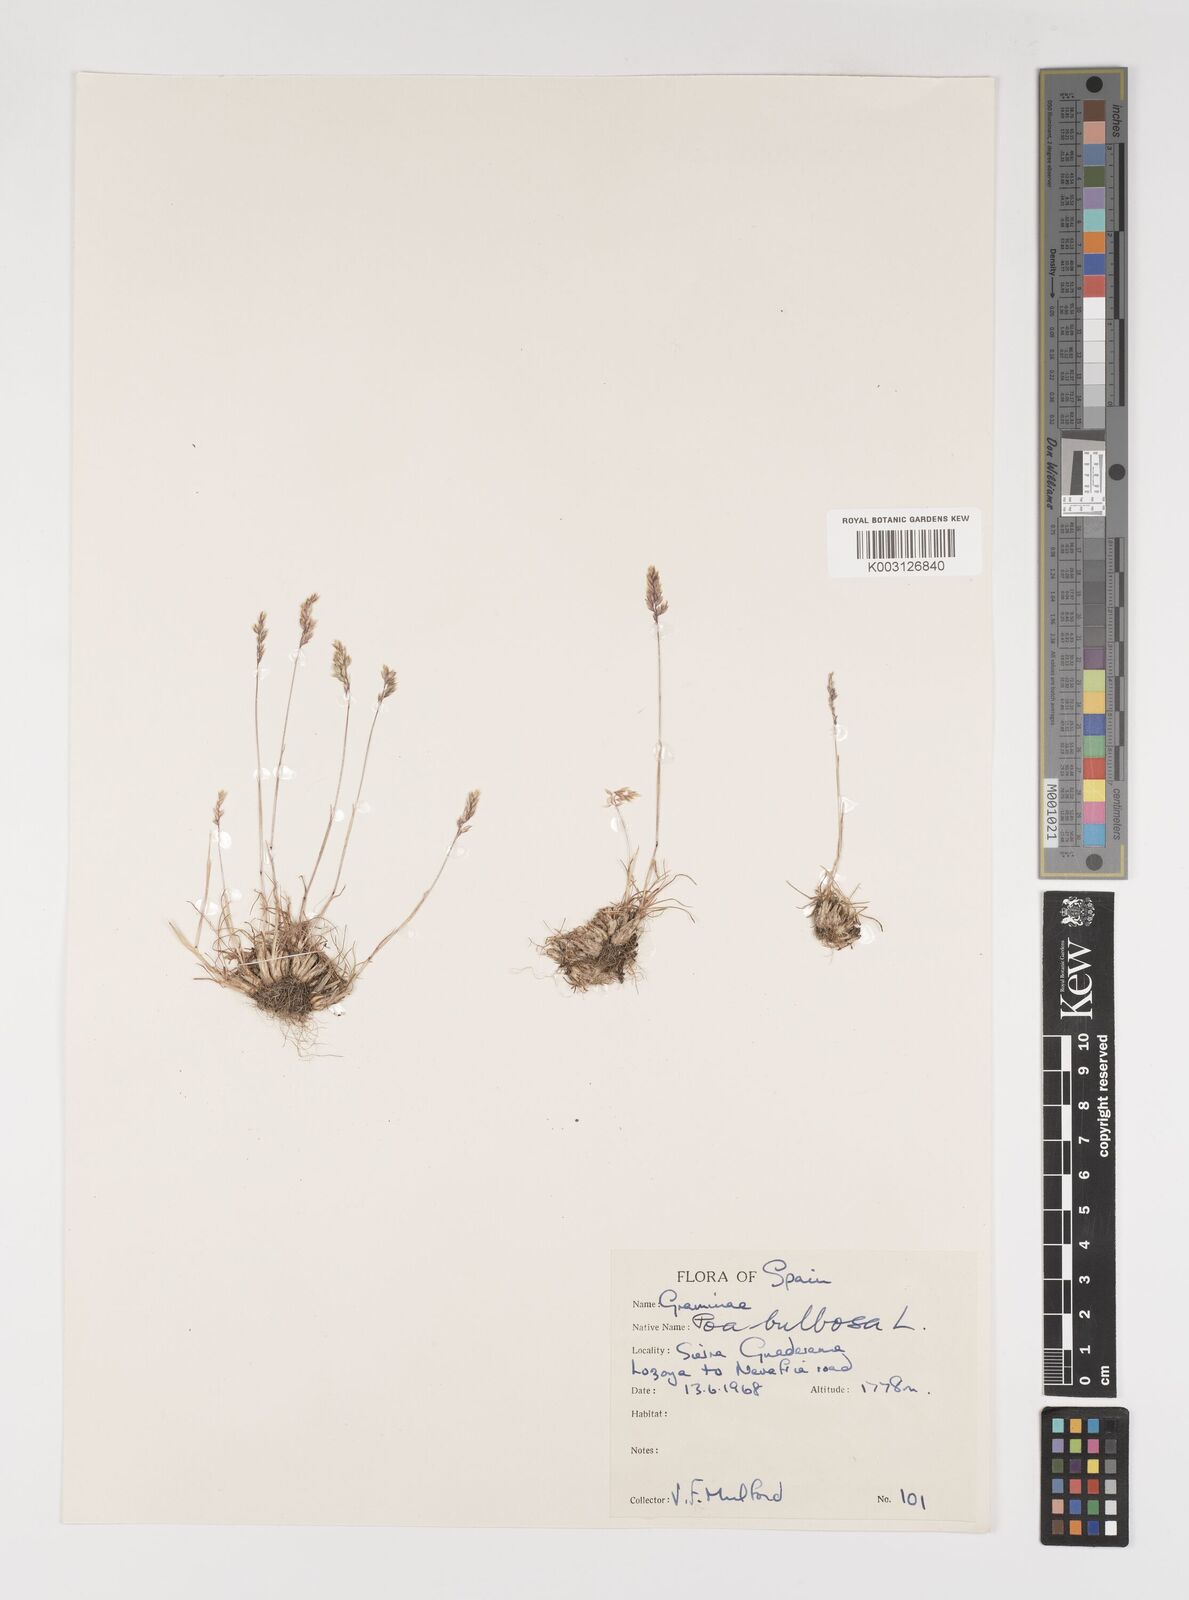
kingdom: Plantae
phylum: Tracheophyta
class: Liliopsida
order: Poales
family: Poaceae
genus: Poa
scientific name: Poa bulbosa
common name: Bulbous bluegrass
